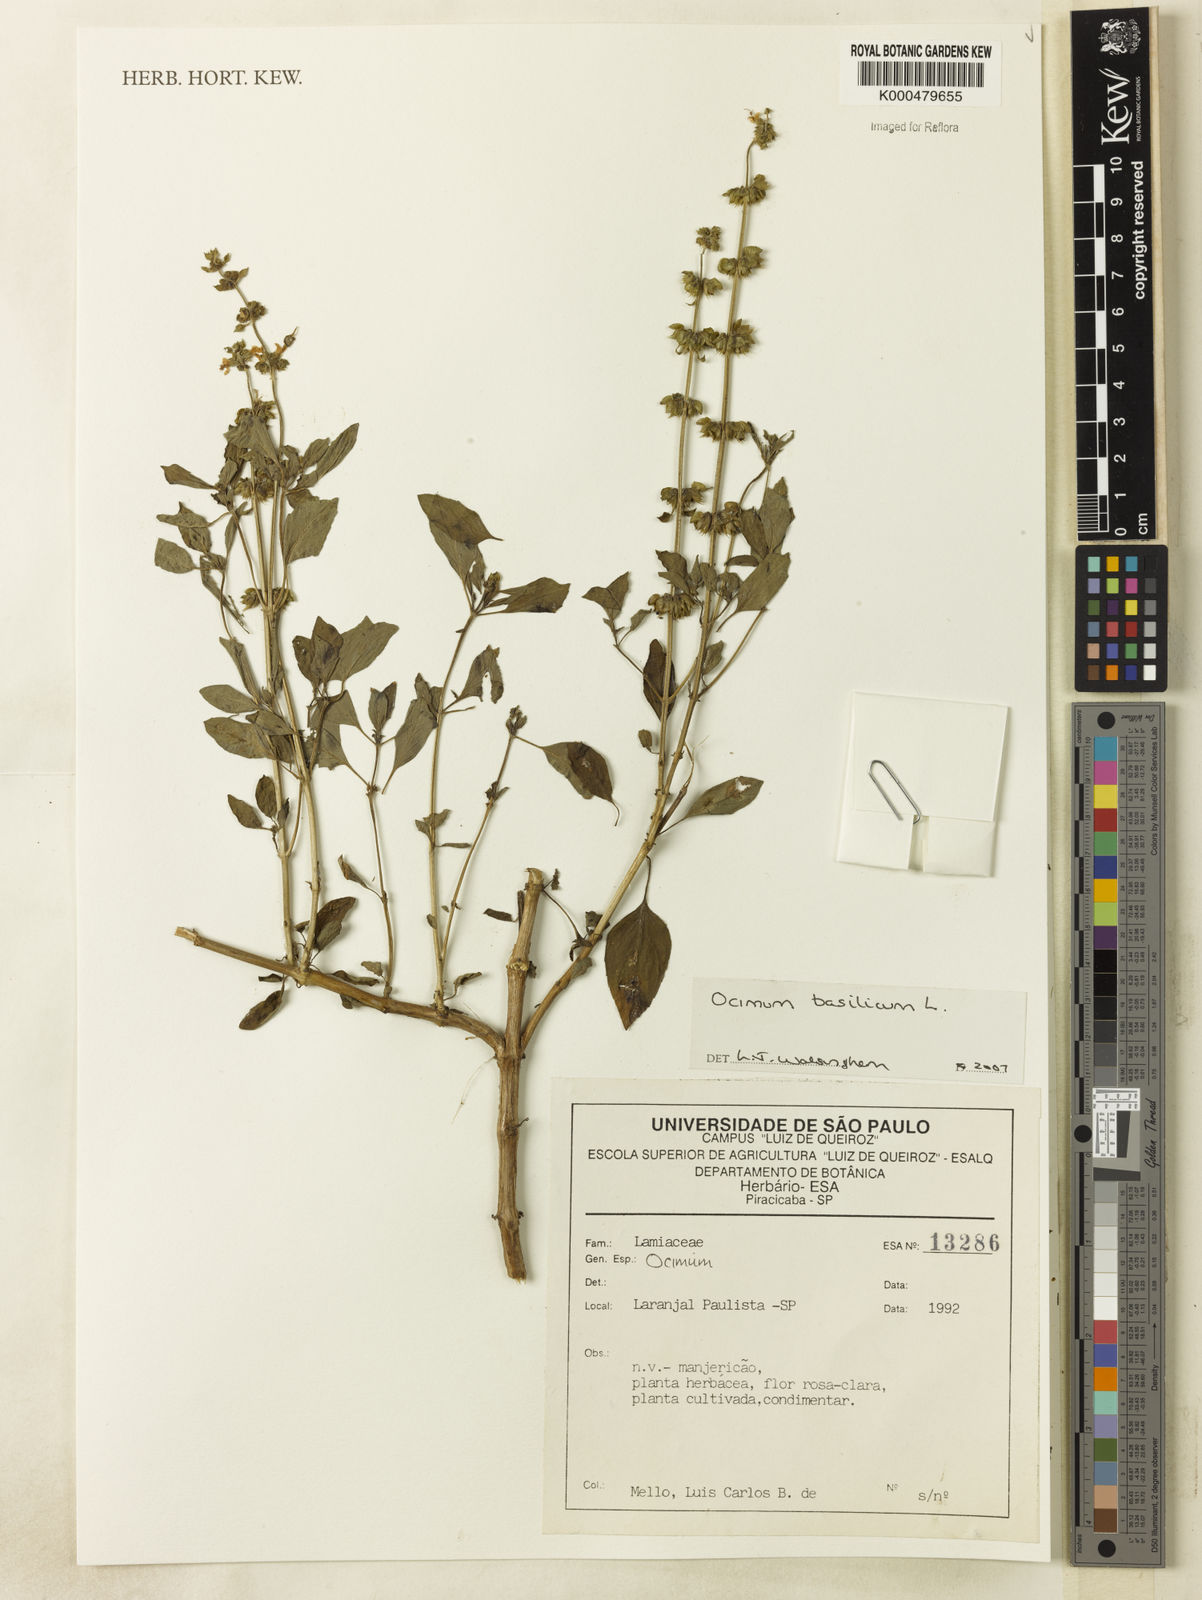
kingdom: Plantae
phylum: Tracheophyta
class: Magnoliopsida
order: Lamiales
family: Lamiaceae
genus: Ocimum
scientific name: Ocimum basilicum
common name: Sweet basil
